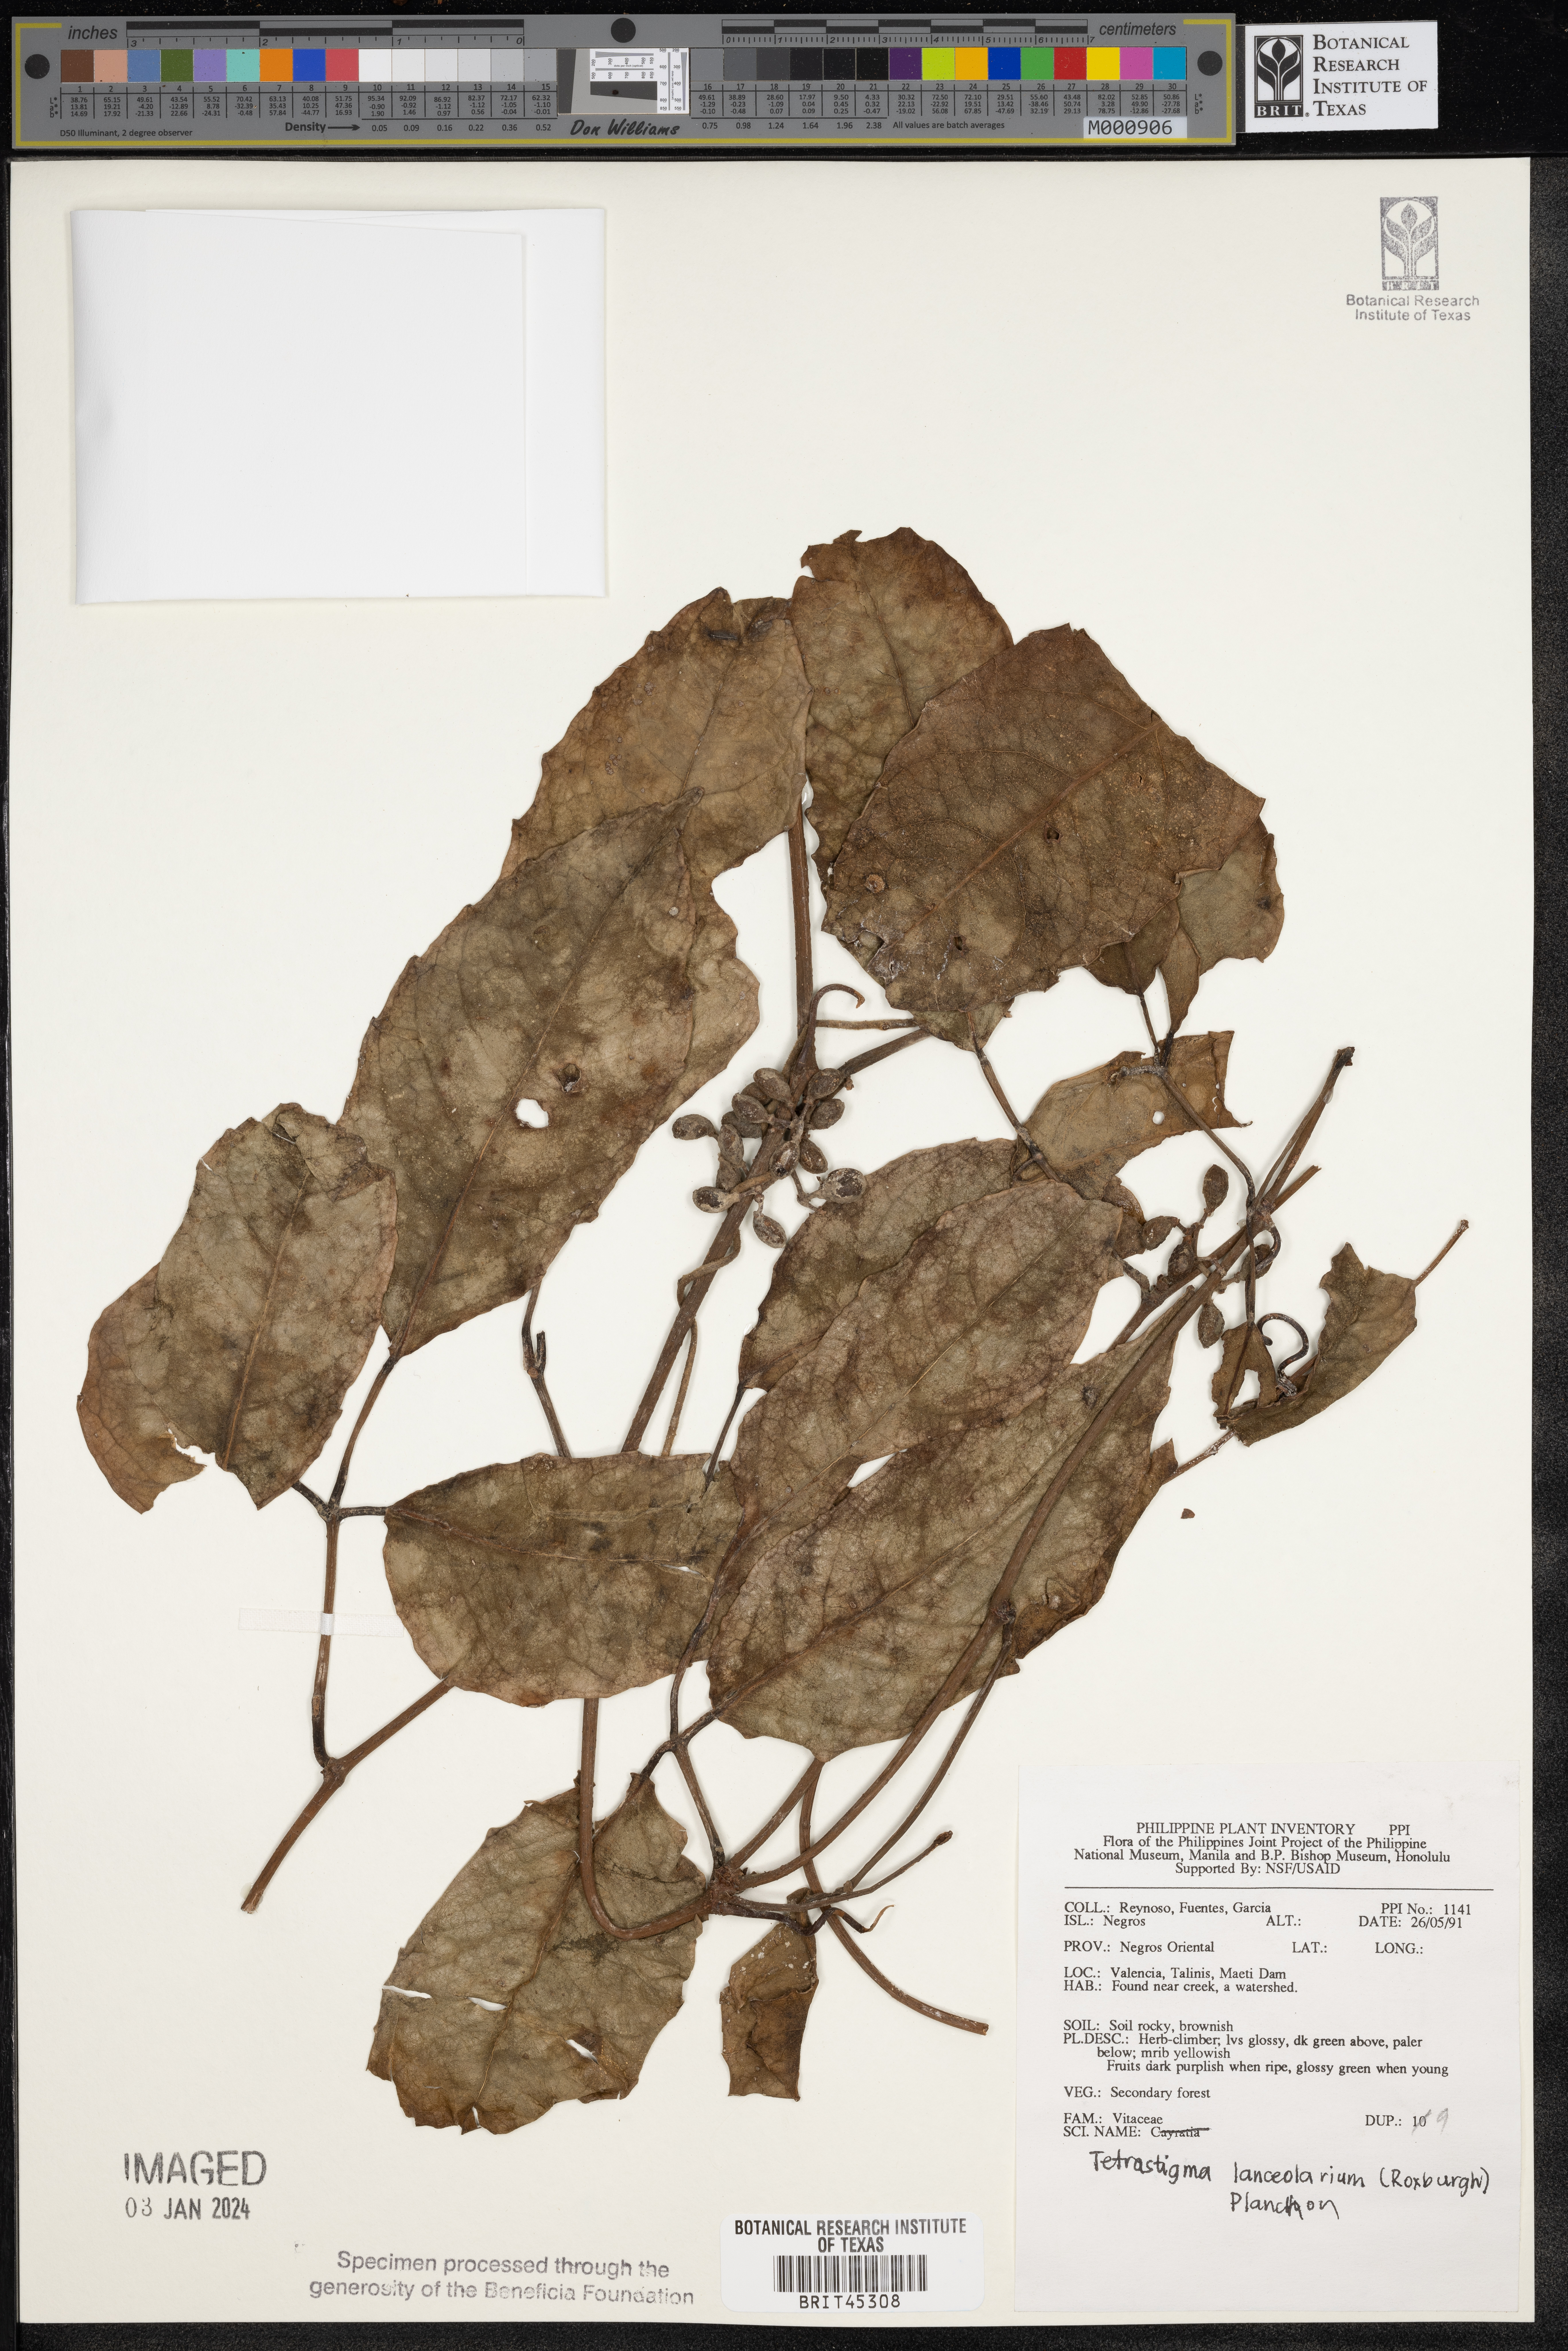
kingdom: Plantae
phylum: Tracheophyta
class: Magnoliopsida
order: Vitales
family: Vitaceae
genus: Tetrastigma
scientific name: Tetrastigma leucostaphylum
